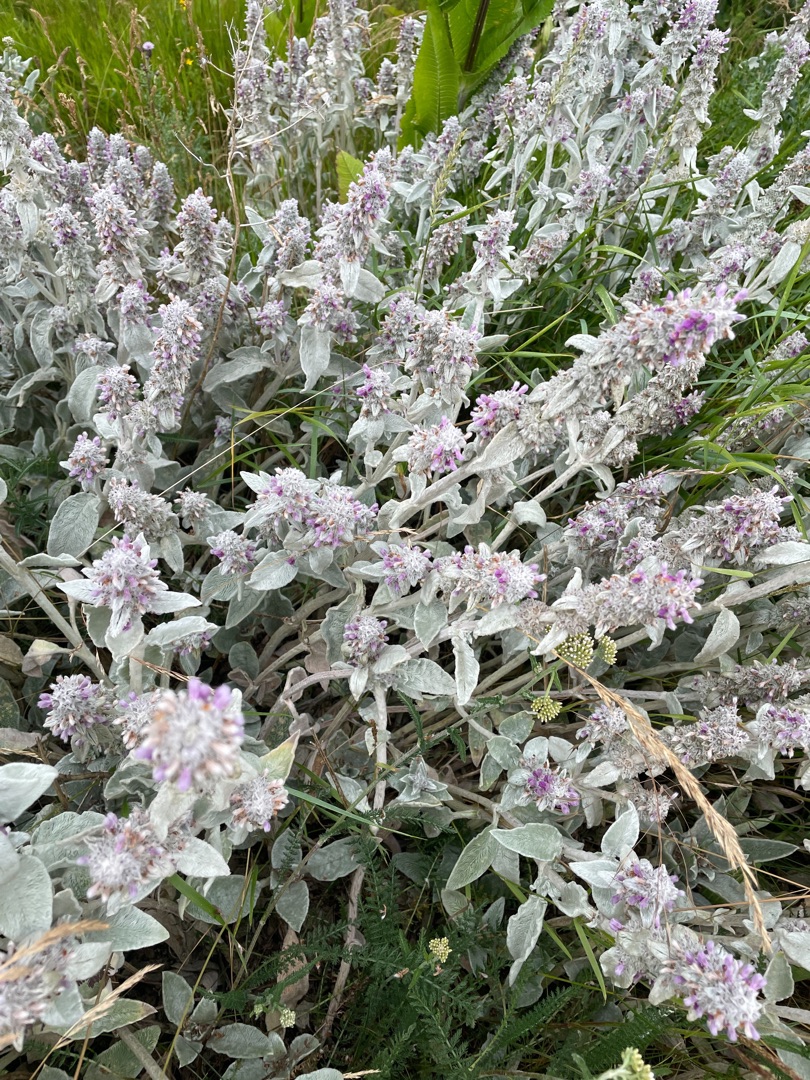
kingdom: Plantae
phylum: Tracheophyta
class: Magnoliopsida
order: Lamiales
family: Lamiaceae
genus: Stachys
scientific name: Stachys byzantina
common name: Lammeøre
